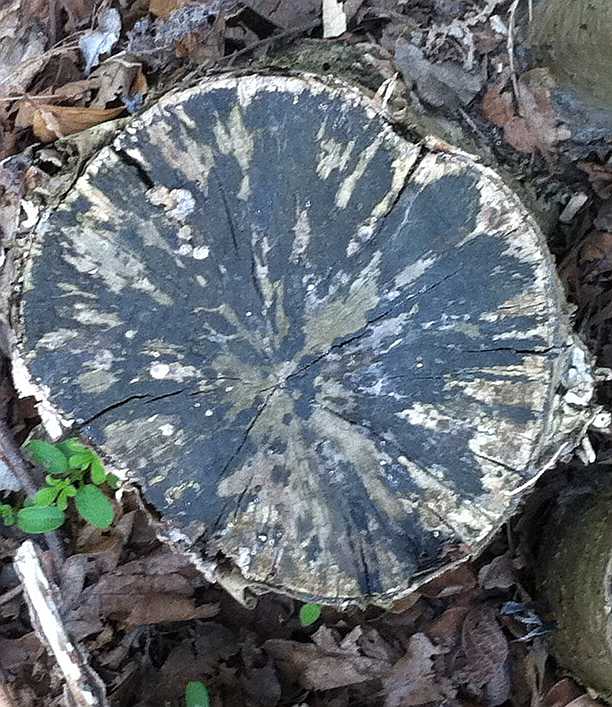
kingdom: Fungi
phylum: Ascomycota
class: Leotiomycetes
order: Helotiales
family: Helotiaceae
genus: Bispora
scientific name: Bispora pallescens
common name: måtte-snitskive
